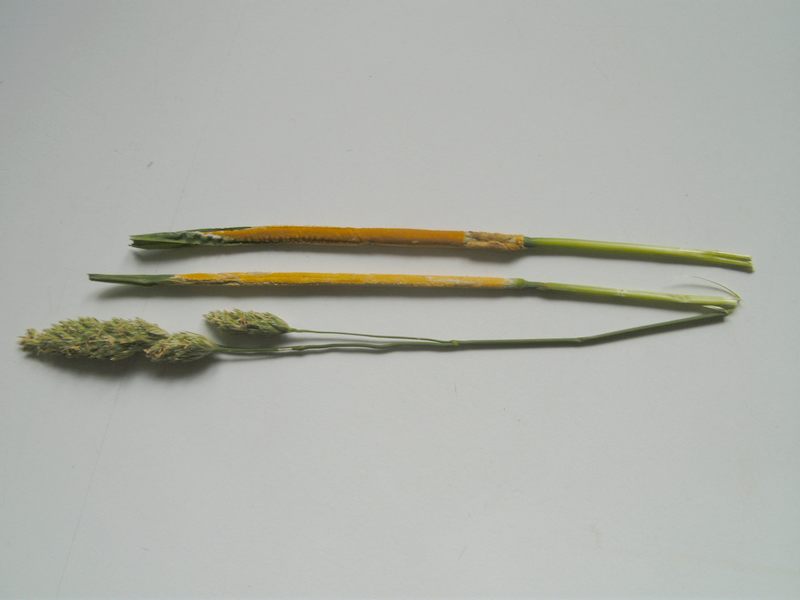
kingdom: Fungi
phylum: Ascomycota
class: Sordariomycetes
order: Hypocreales
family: Clavicipitaceae
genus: Epichloe
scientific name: Epichloe typhina
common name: almindelig kernerør
